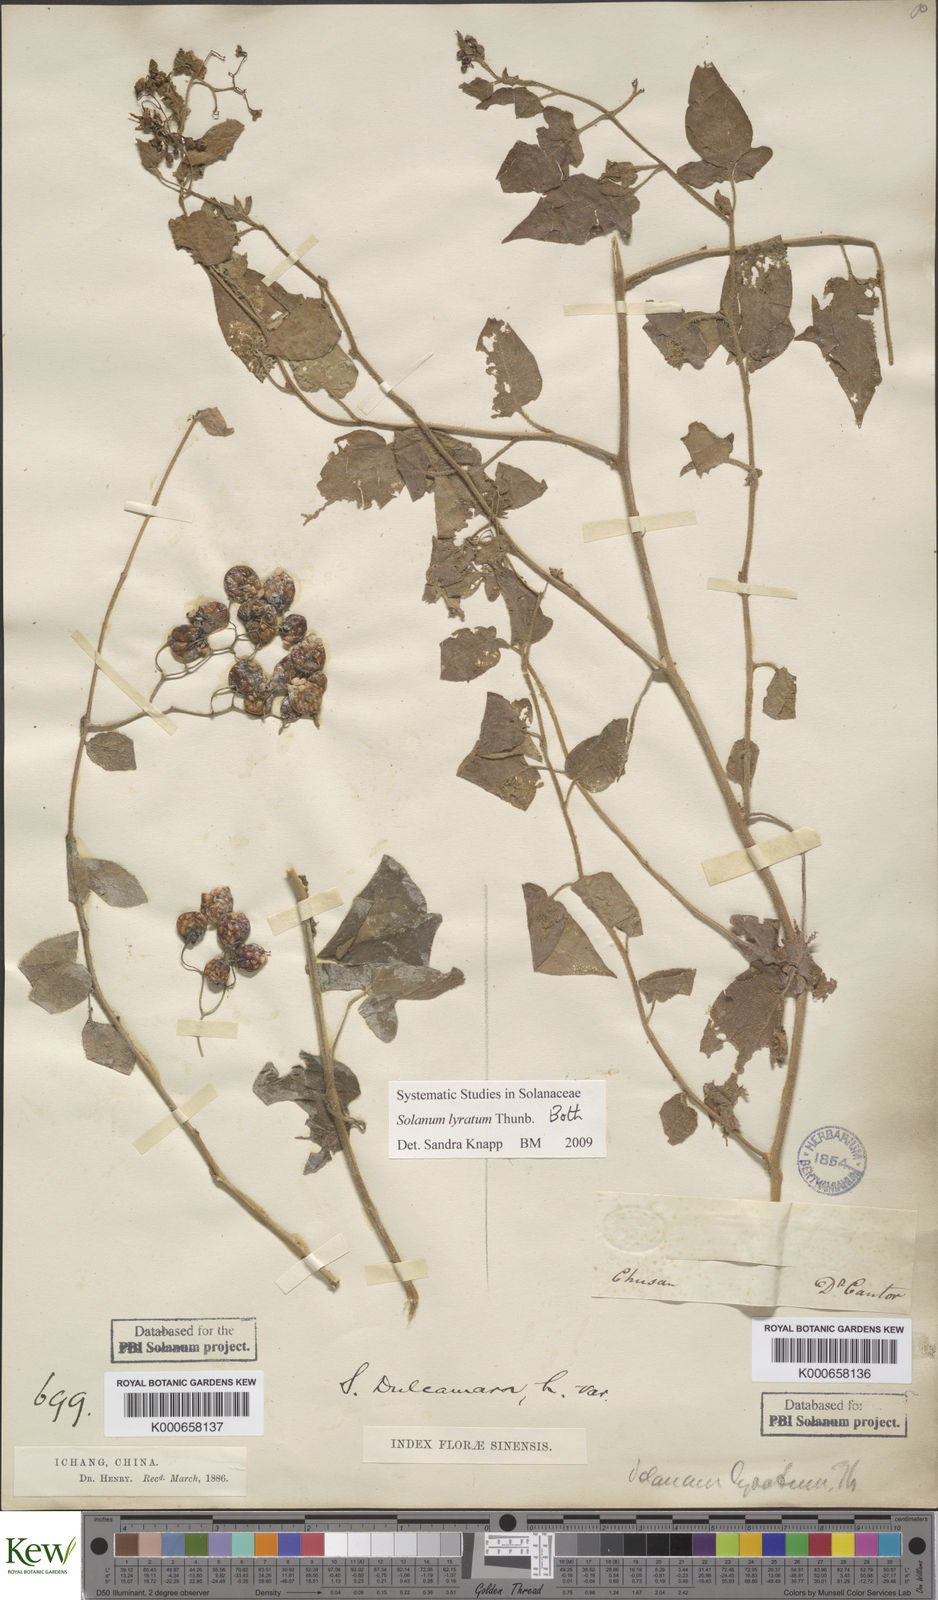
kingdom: Plantae
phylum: Tracheophyta
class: Magnoliopsida
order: Solanales
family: Solanaceae
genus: Solanum
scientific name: Solanum lyratum
